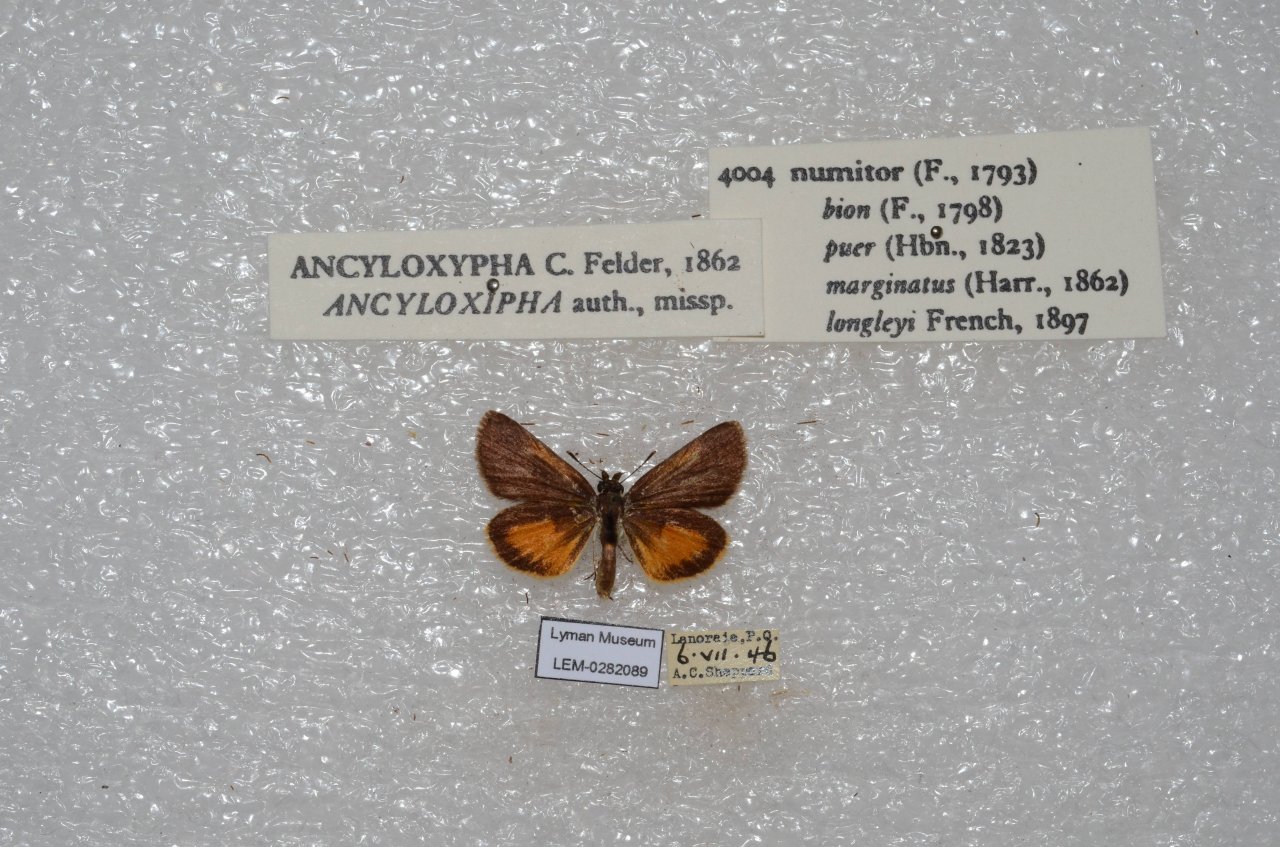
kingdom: Animalia
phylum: Arthropoda
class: Insecta
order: Lepidoptera
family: Hesperiidae
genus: Ancyloxypha
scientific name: Ancyloxypha numitor
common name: Least Skipper
